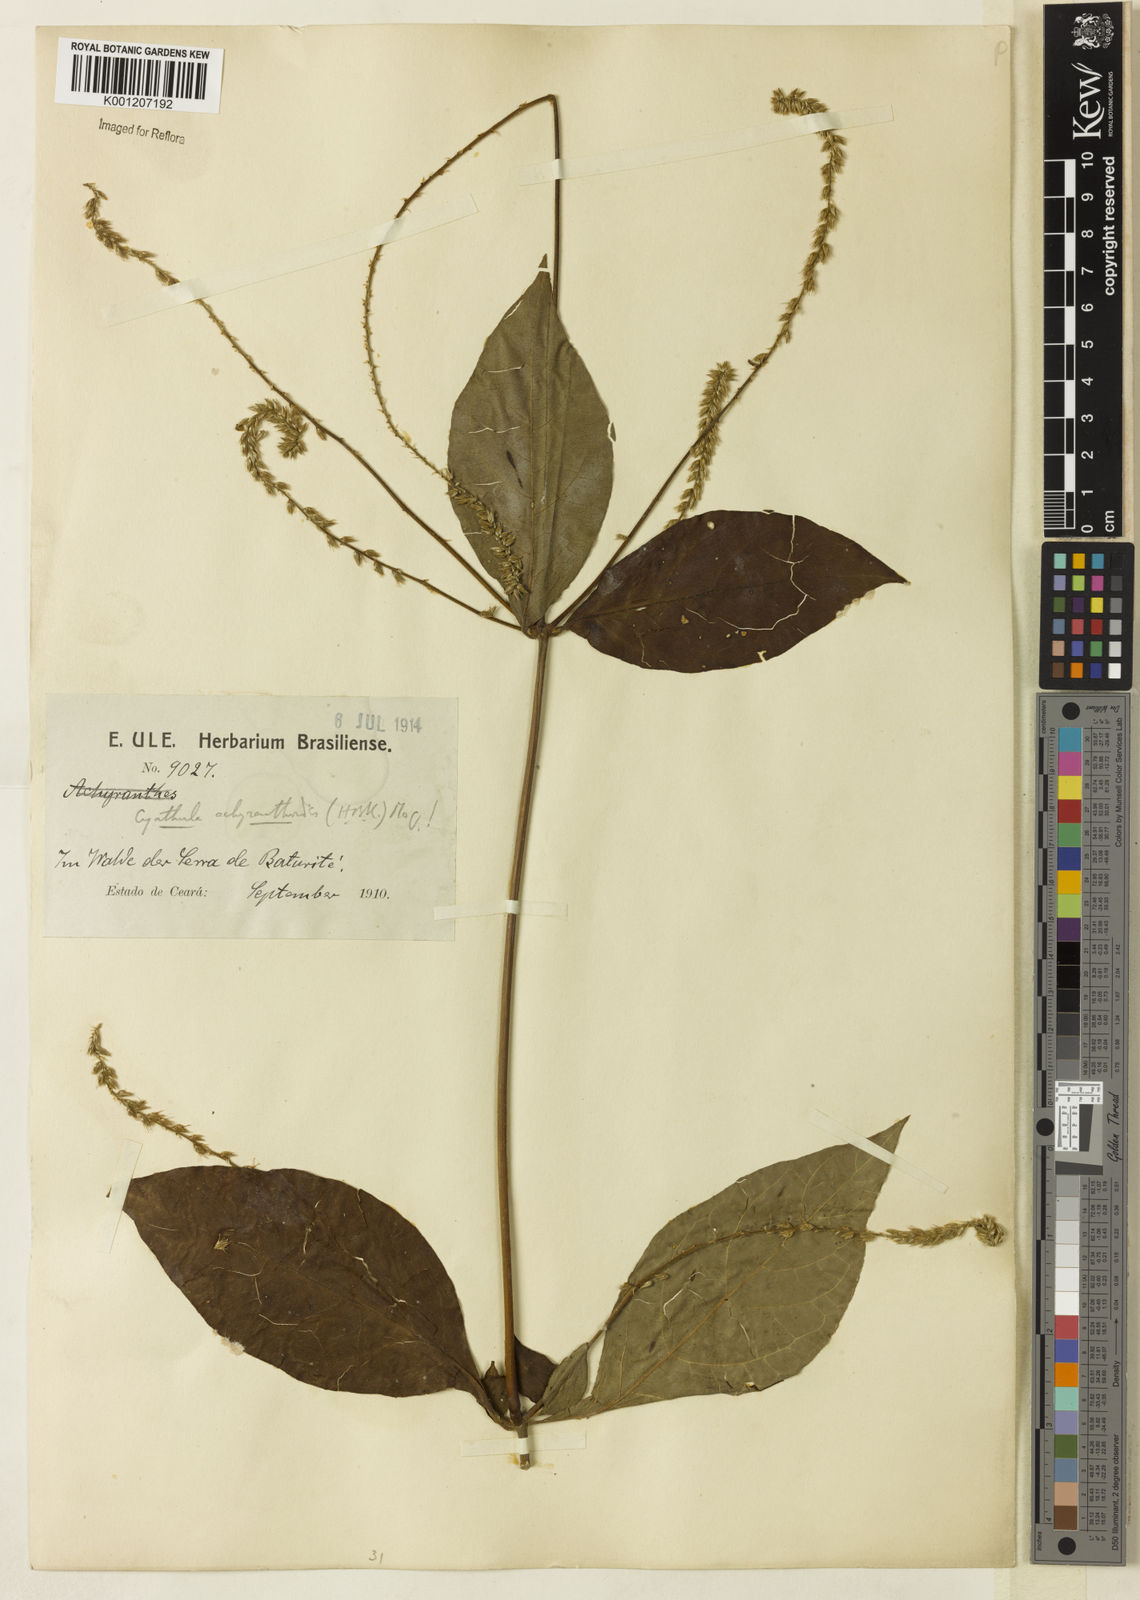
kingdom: Plantae
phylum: Tracheophyta
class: Magnoliopsida
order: Caryophyllales
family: Amaranthaceae
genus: Cyathula
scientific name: Cyathula achyranthoides
